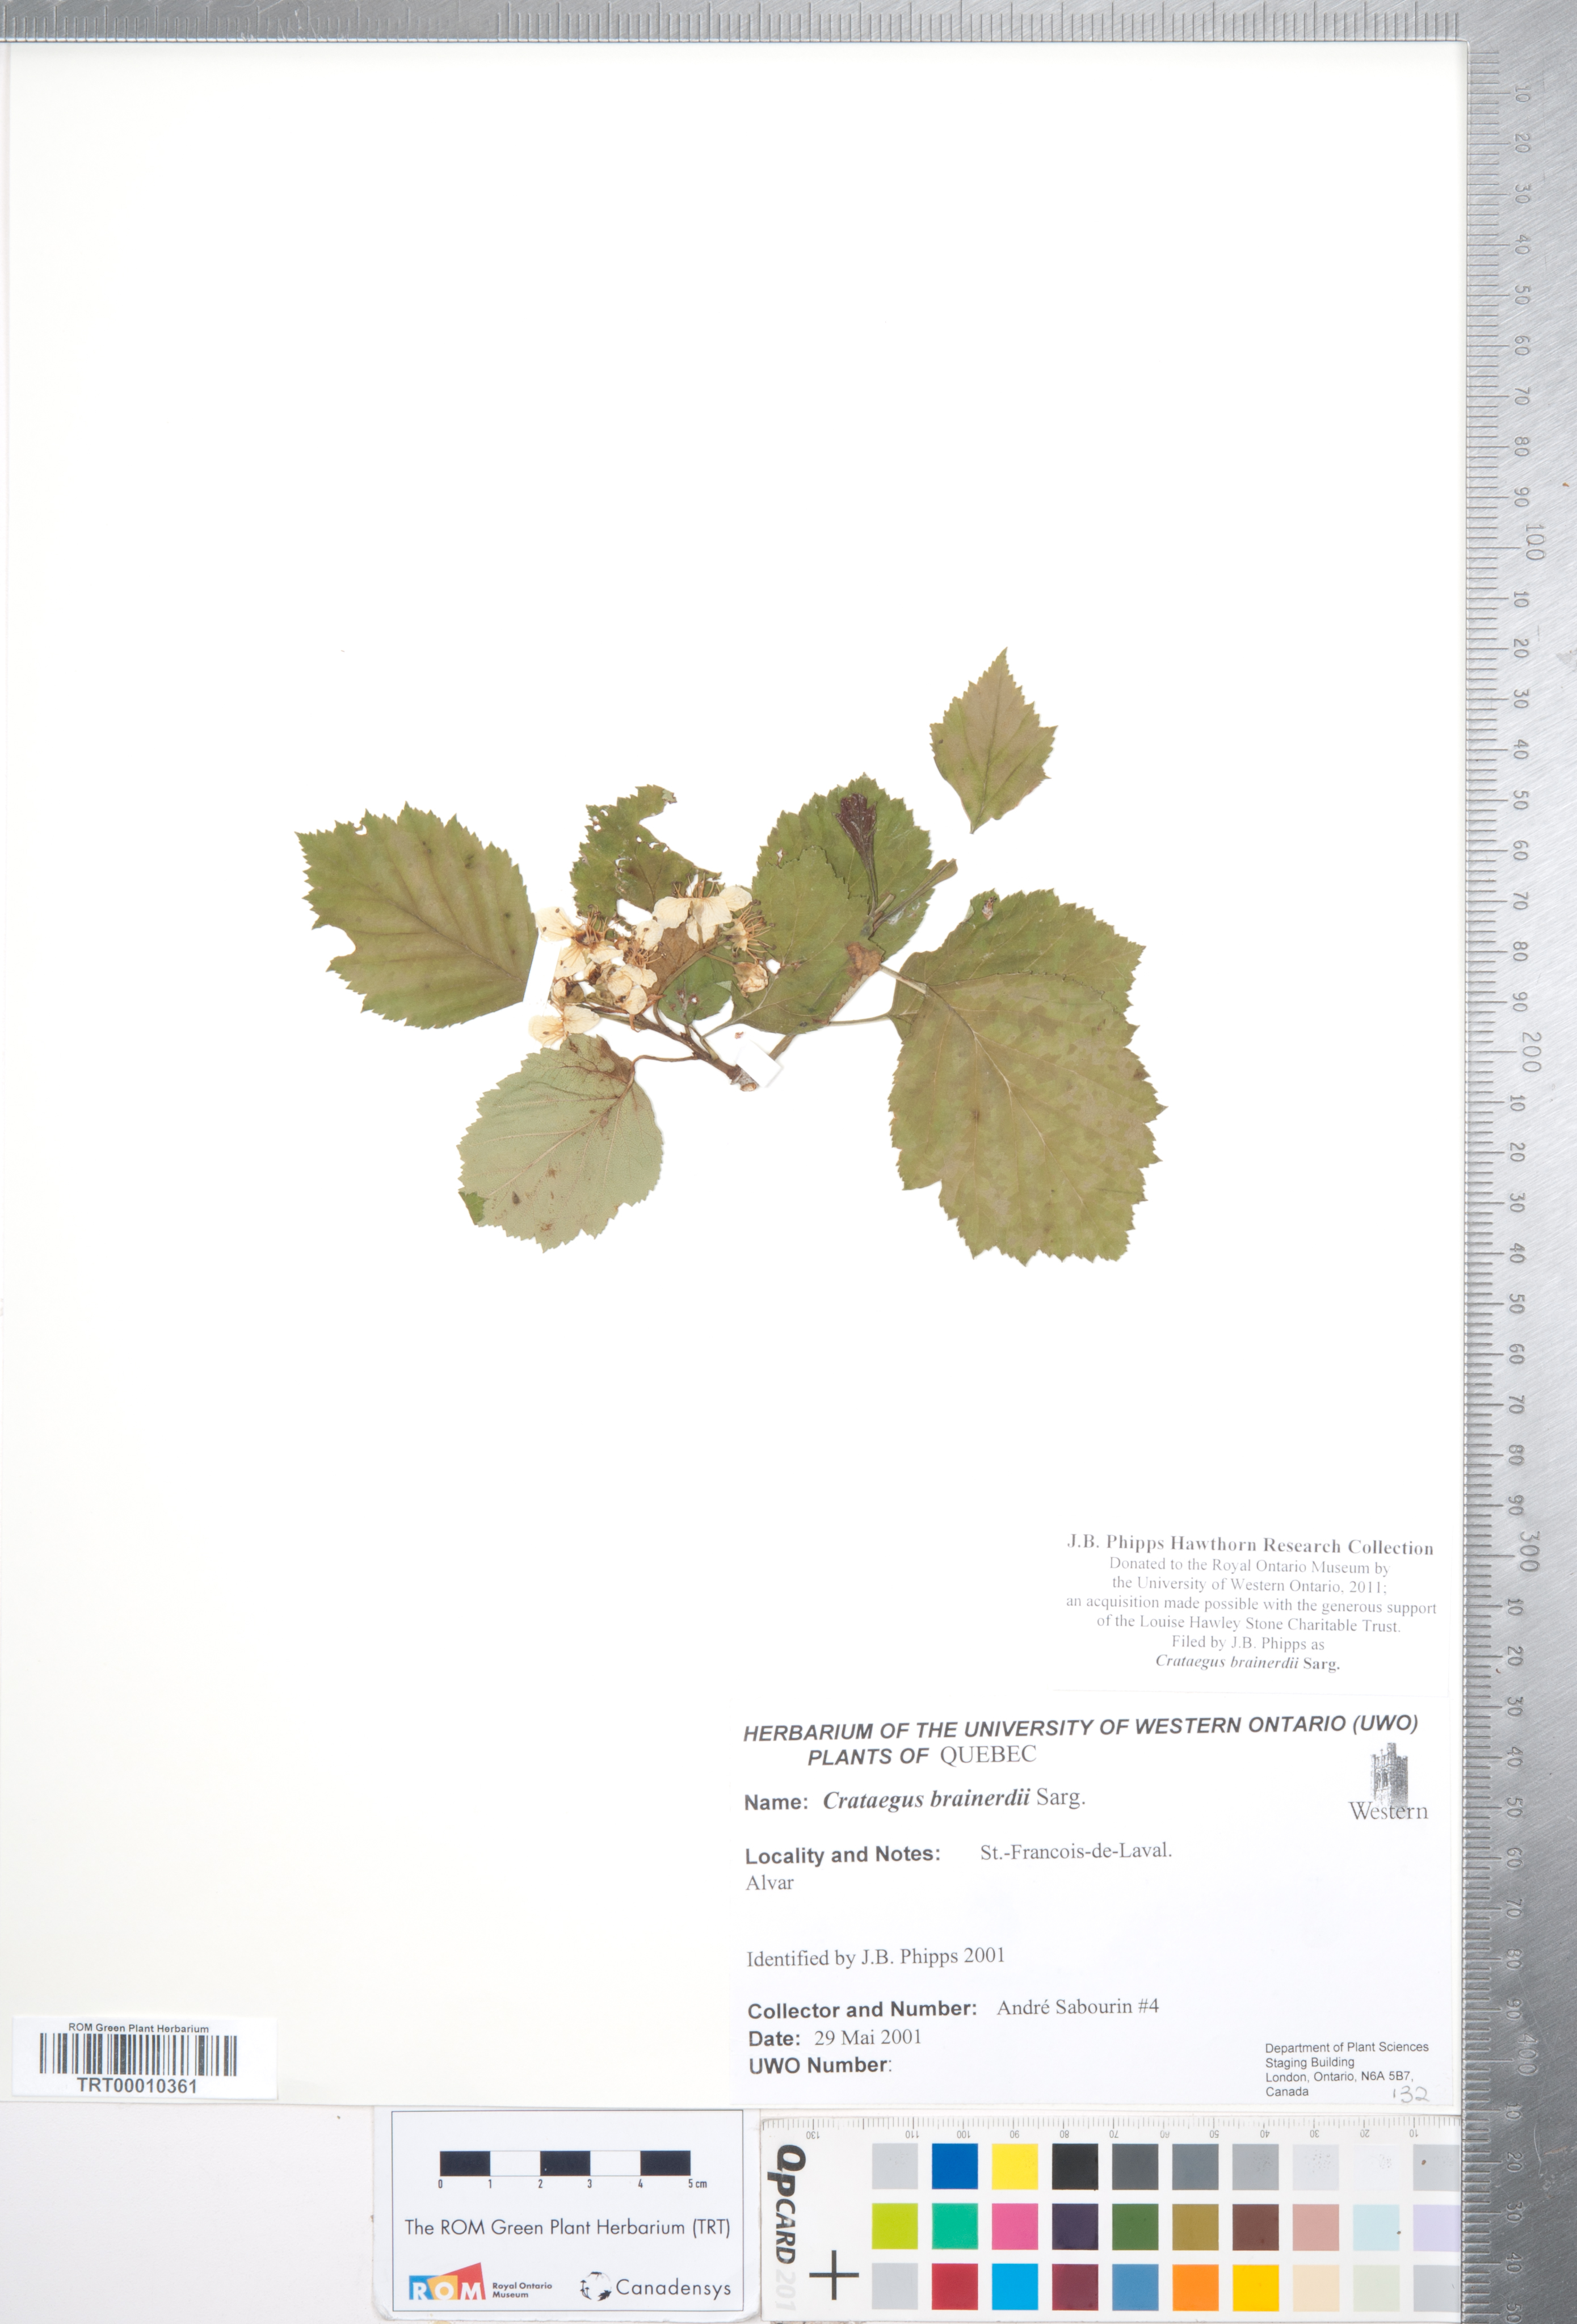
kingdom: Plantae
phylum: Tracheophyta
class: Magnoliopsida
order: Rosales
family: Rosaceae
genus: Crataegus
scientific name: Crataegus scabrida
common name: Rough hawthorn
